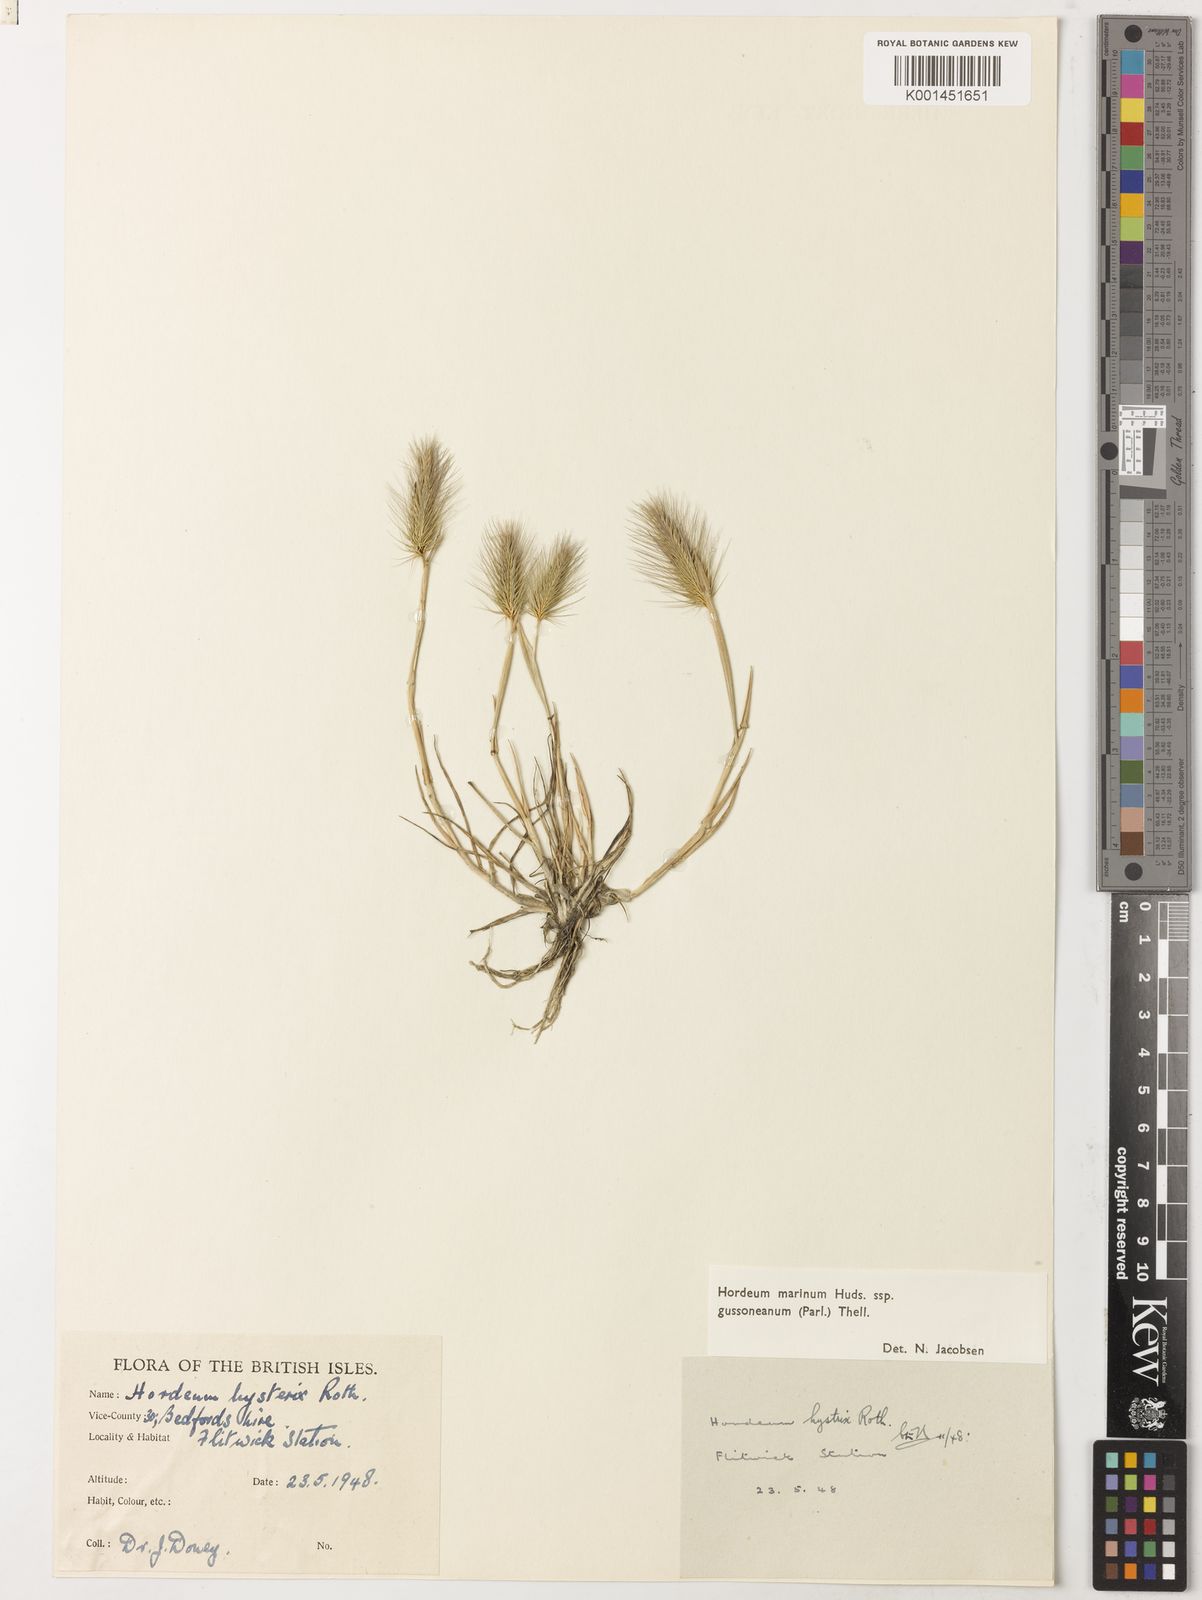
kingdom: Plantae
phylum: Tracheophyta
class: Liliopsida
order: Poales
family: Poaceae
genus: Hordeum
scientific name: Hordeum marinum
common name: Sea barley
